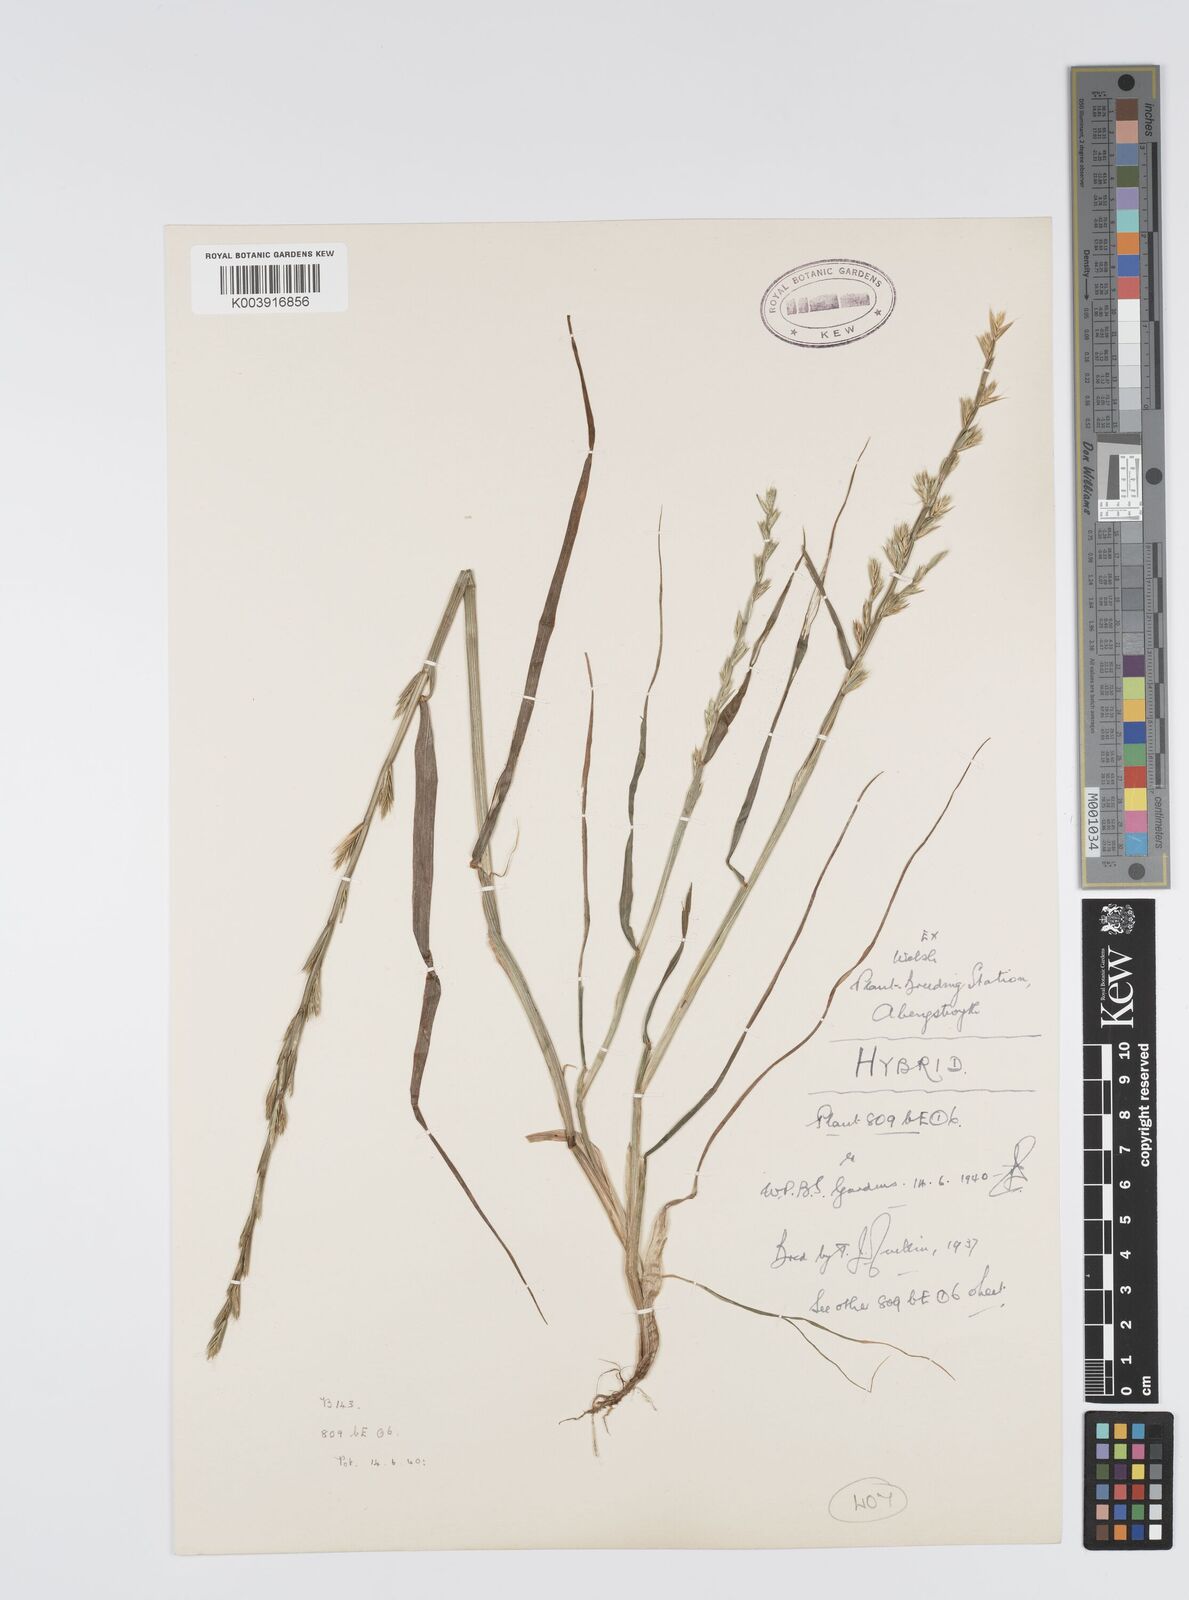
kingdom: Plantae
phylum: Tracheophyta
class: Liliopsida
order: Poales
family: Poaceae
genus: Lolium
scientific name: Lolium multiflorum
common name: Annual ryegrass
